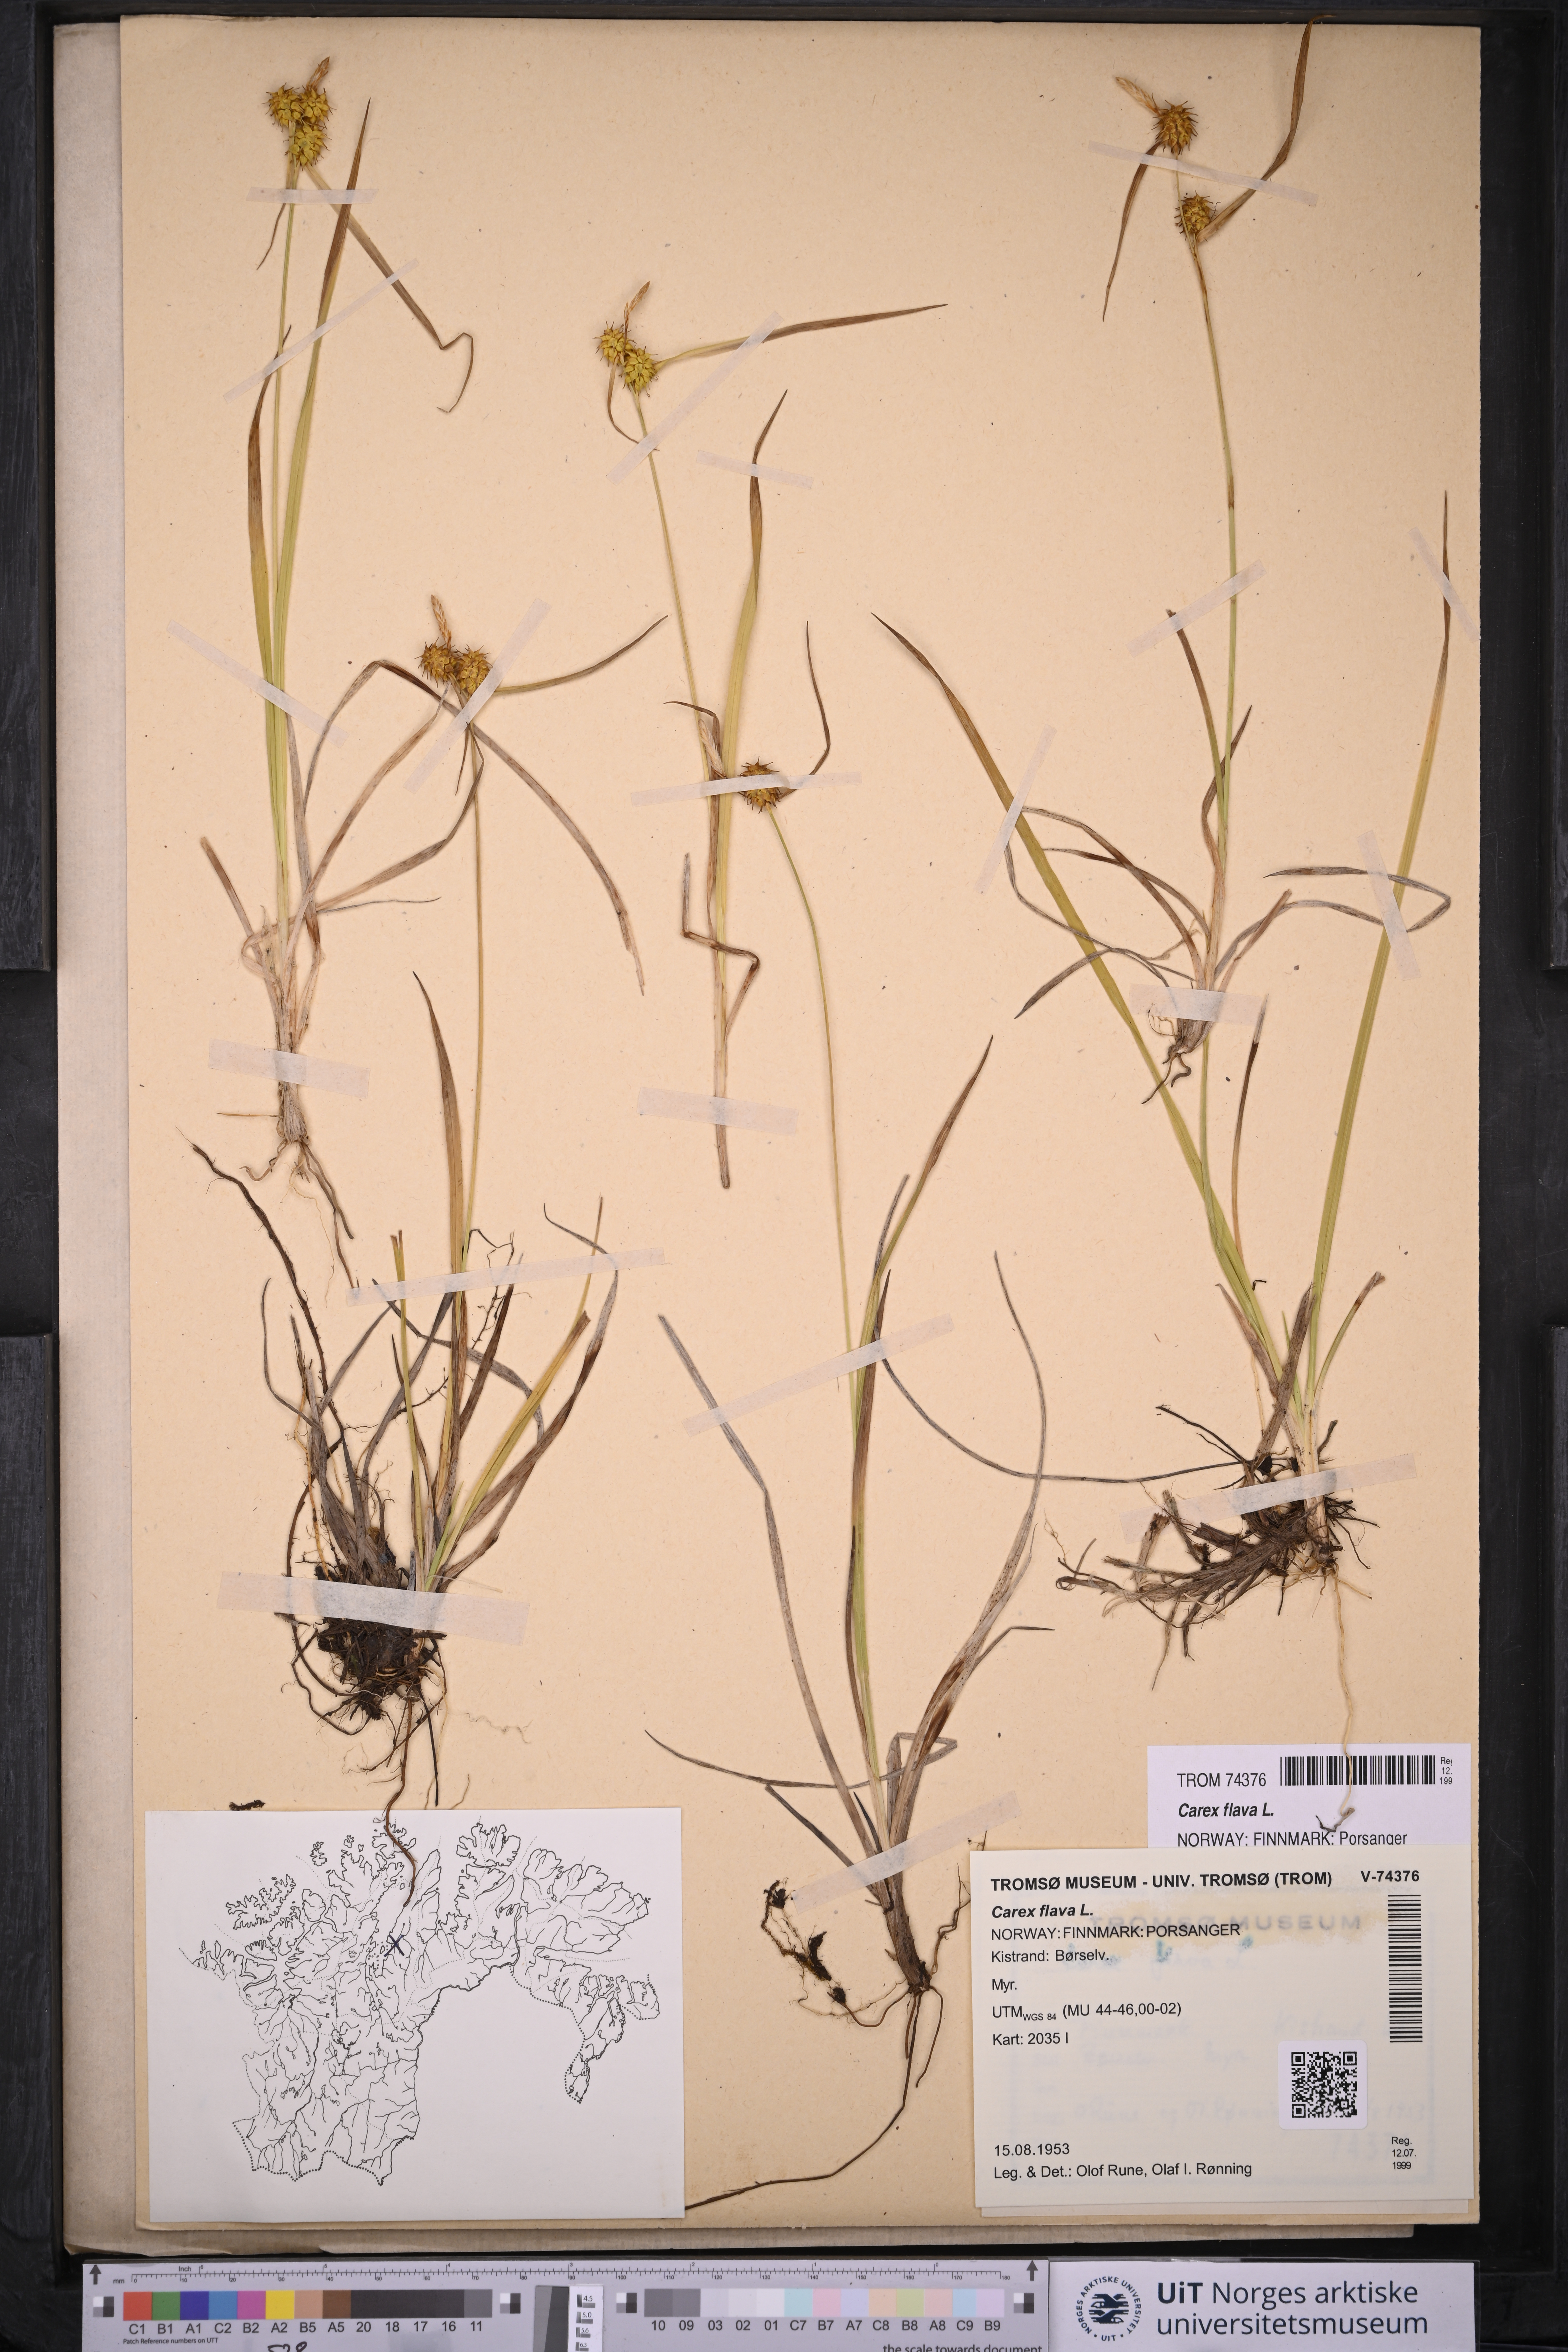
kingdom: Plantae
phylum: Tracheophyta
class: Liliopsida
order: Poales
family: Cyperaceae
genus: Carex
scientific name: Carex flava
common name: Large yellow-sedge
